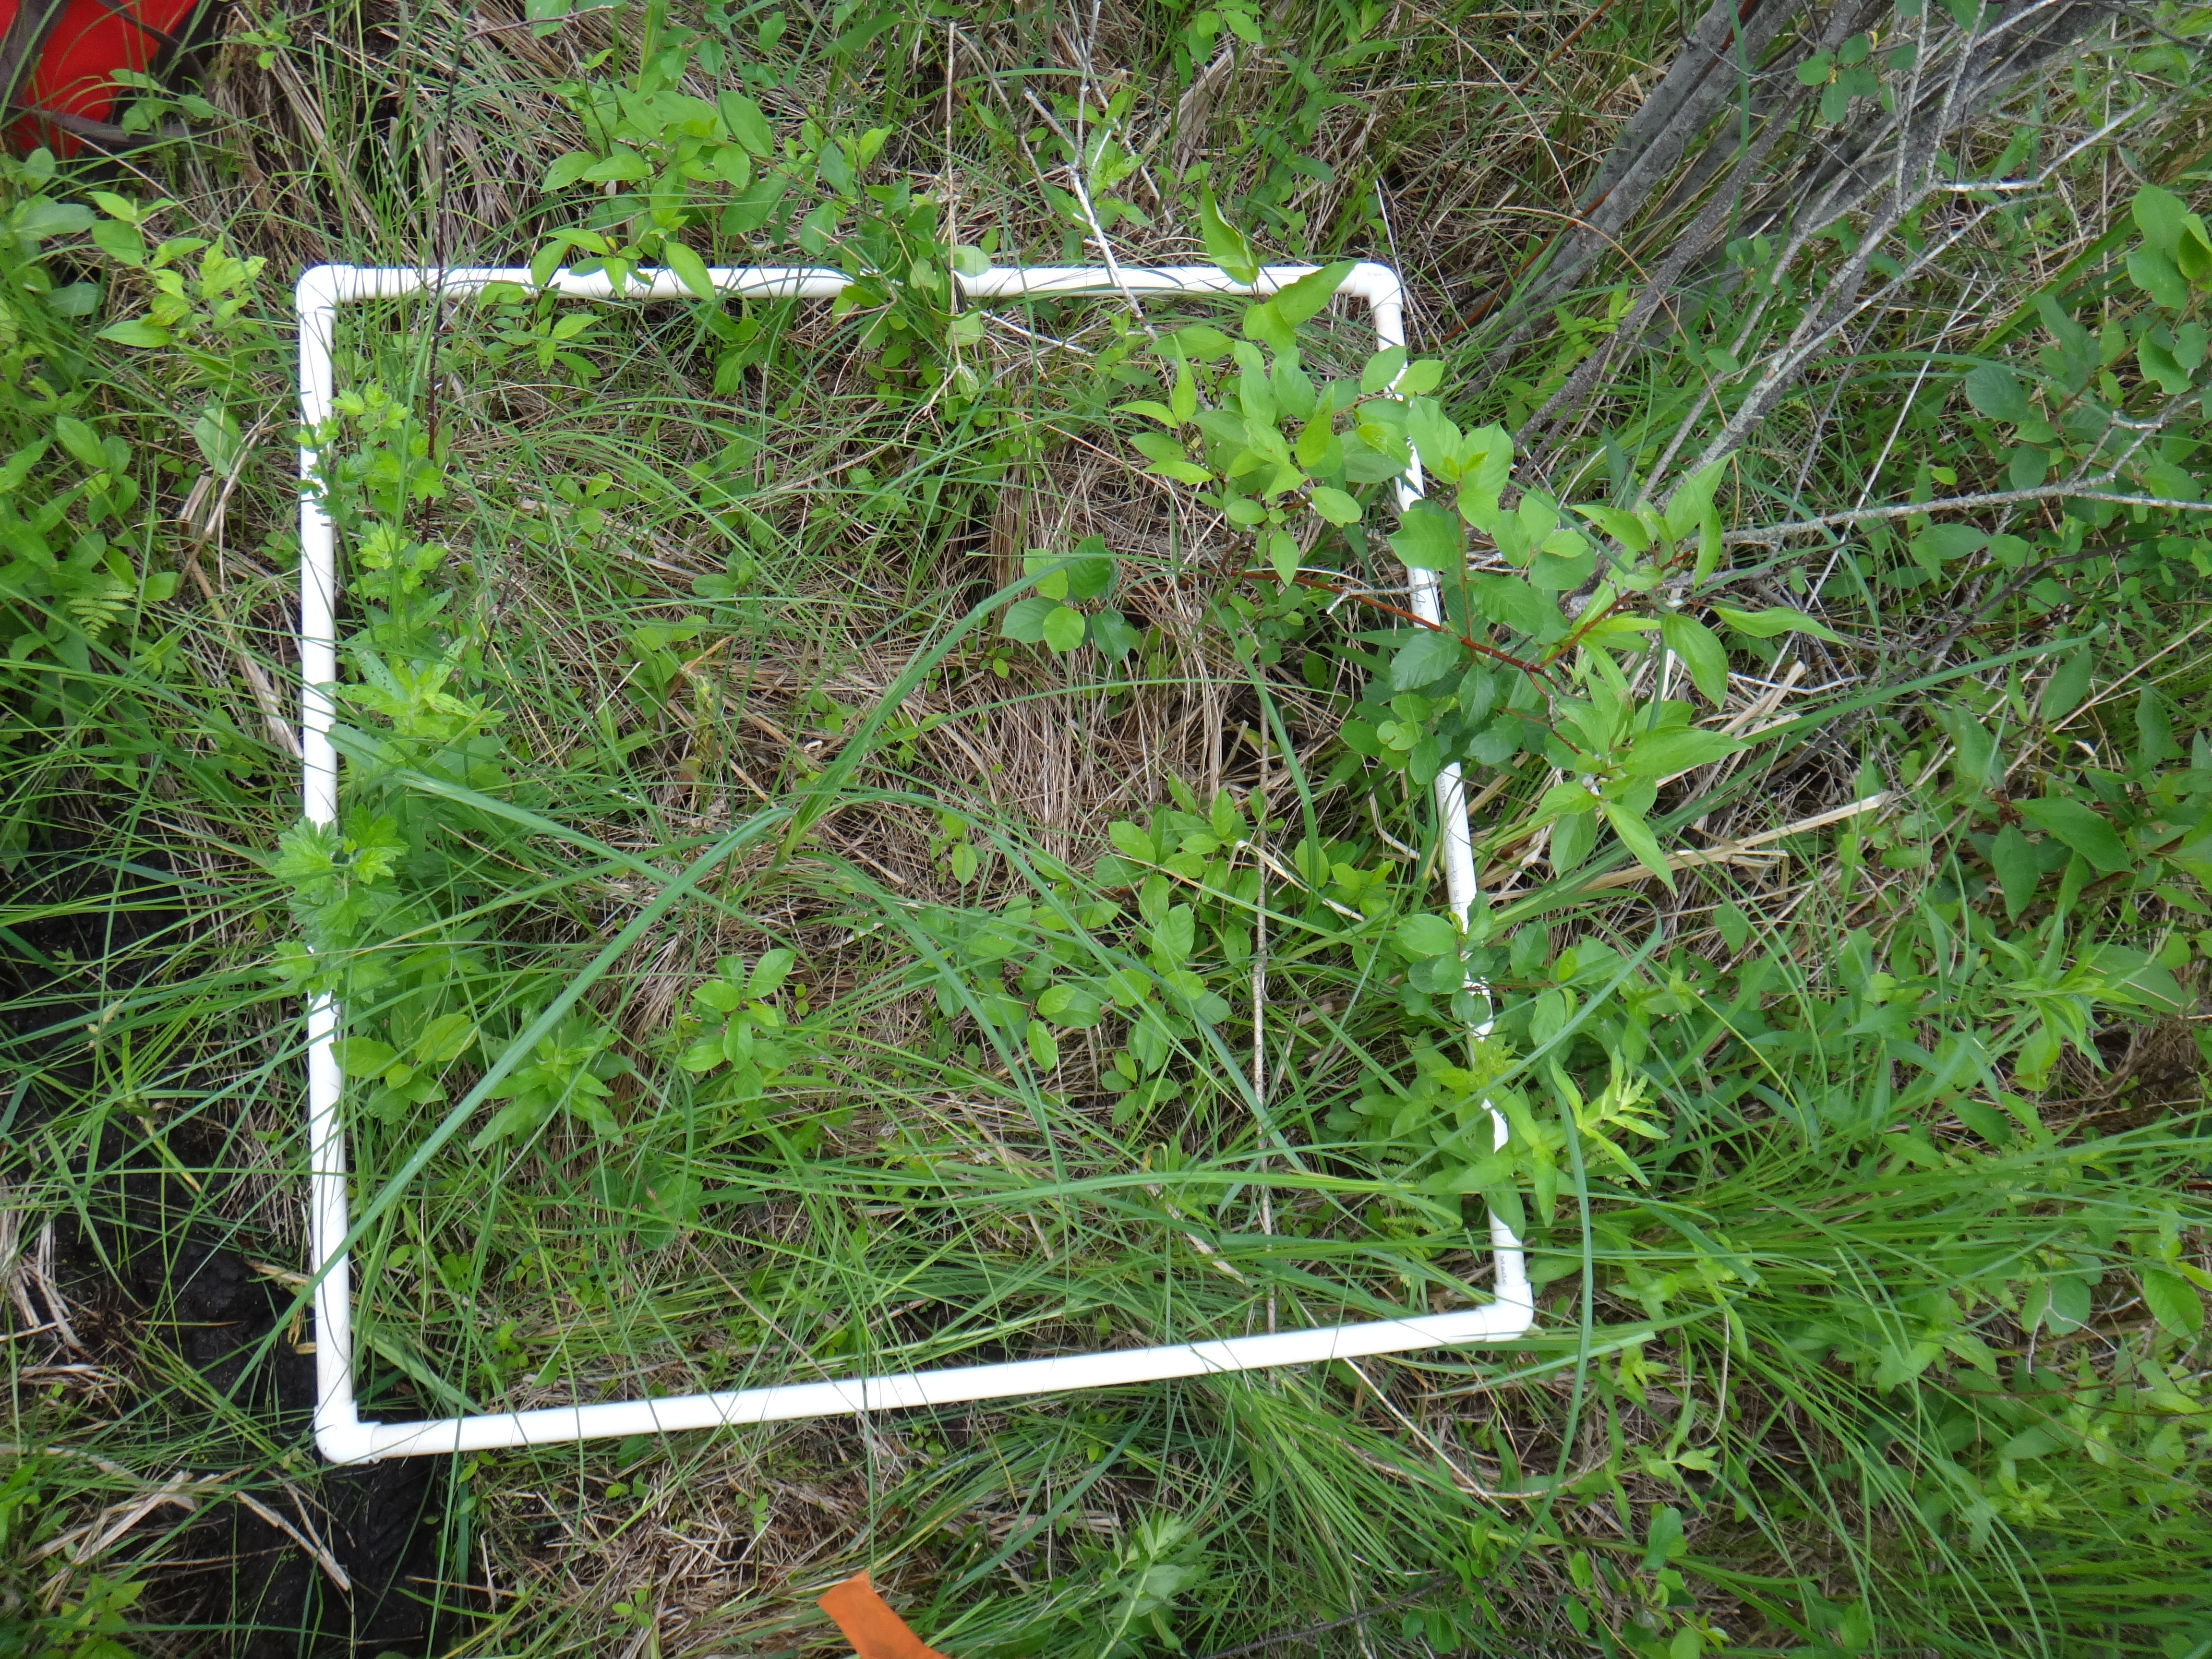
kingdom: Plantae
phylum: Tracheophyta
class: Magnoliopsida
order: Asterales
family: Asteraceae
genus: Eupatorium
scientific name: Eupatorium perfoliatum
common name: Boneset
